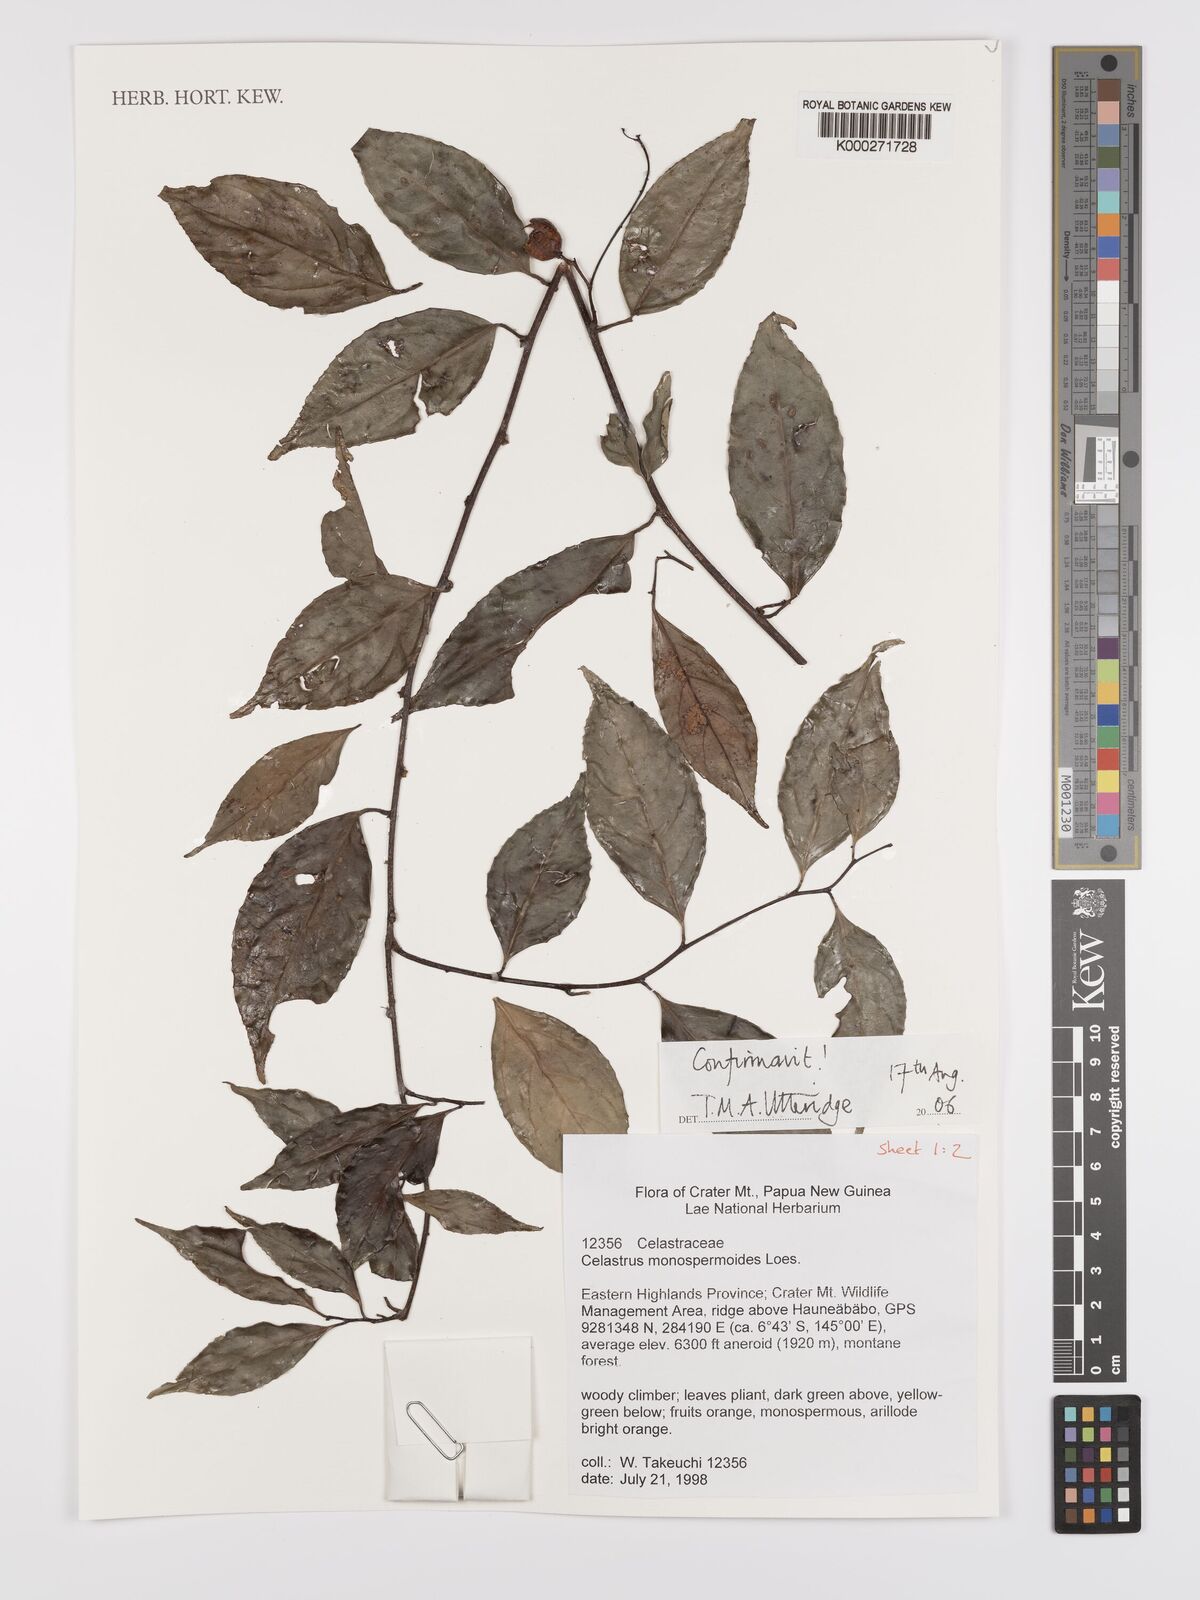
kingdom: Plantae
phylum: Tracheophyta
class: Magnoliopsida
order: Celastrales
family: Celastraceae
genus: Celastrus
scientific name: Celastrus monospermoides
